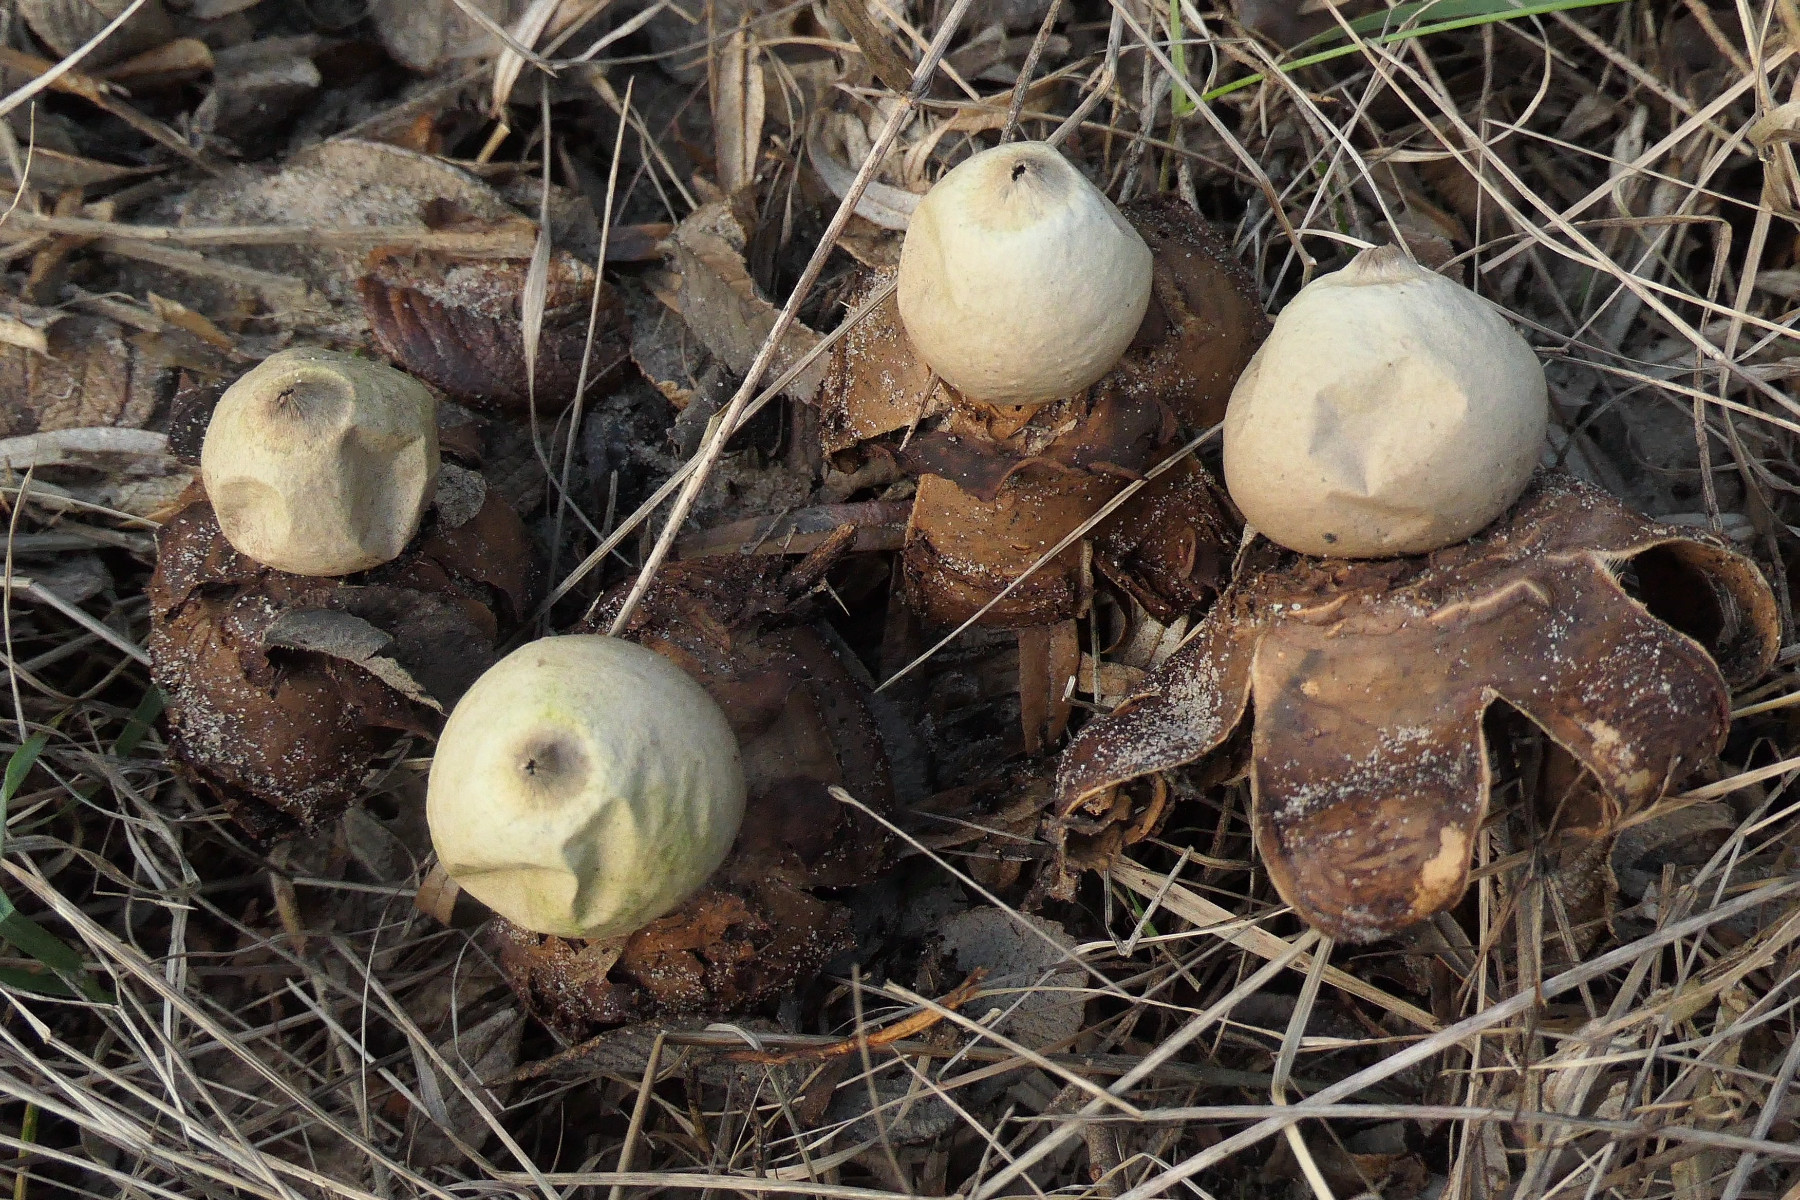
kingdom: Fungi
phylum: Basidiomycota
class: Agaricomycetes
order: Geastrales
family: Geastraceae
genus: Geastrum
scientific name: Geastrum michelianum
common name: kødet stjernebold
